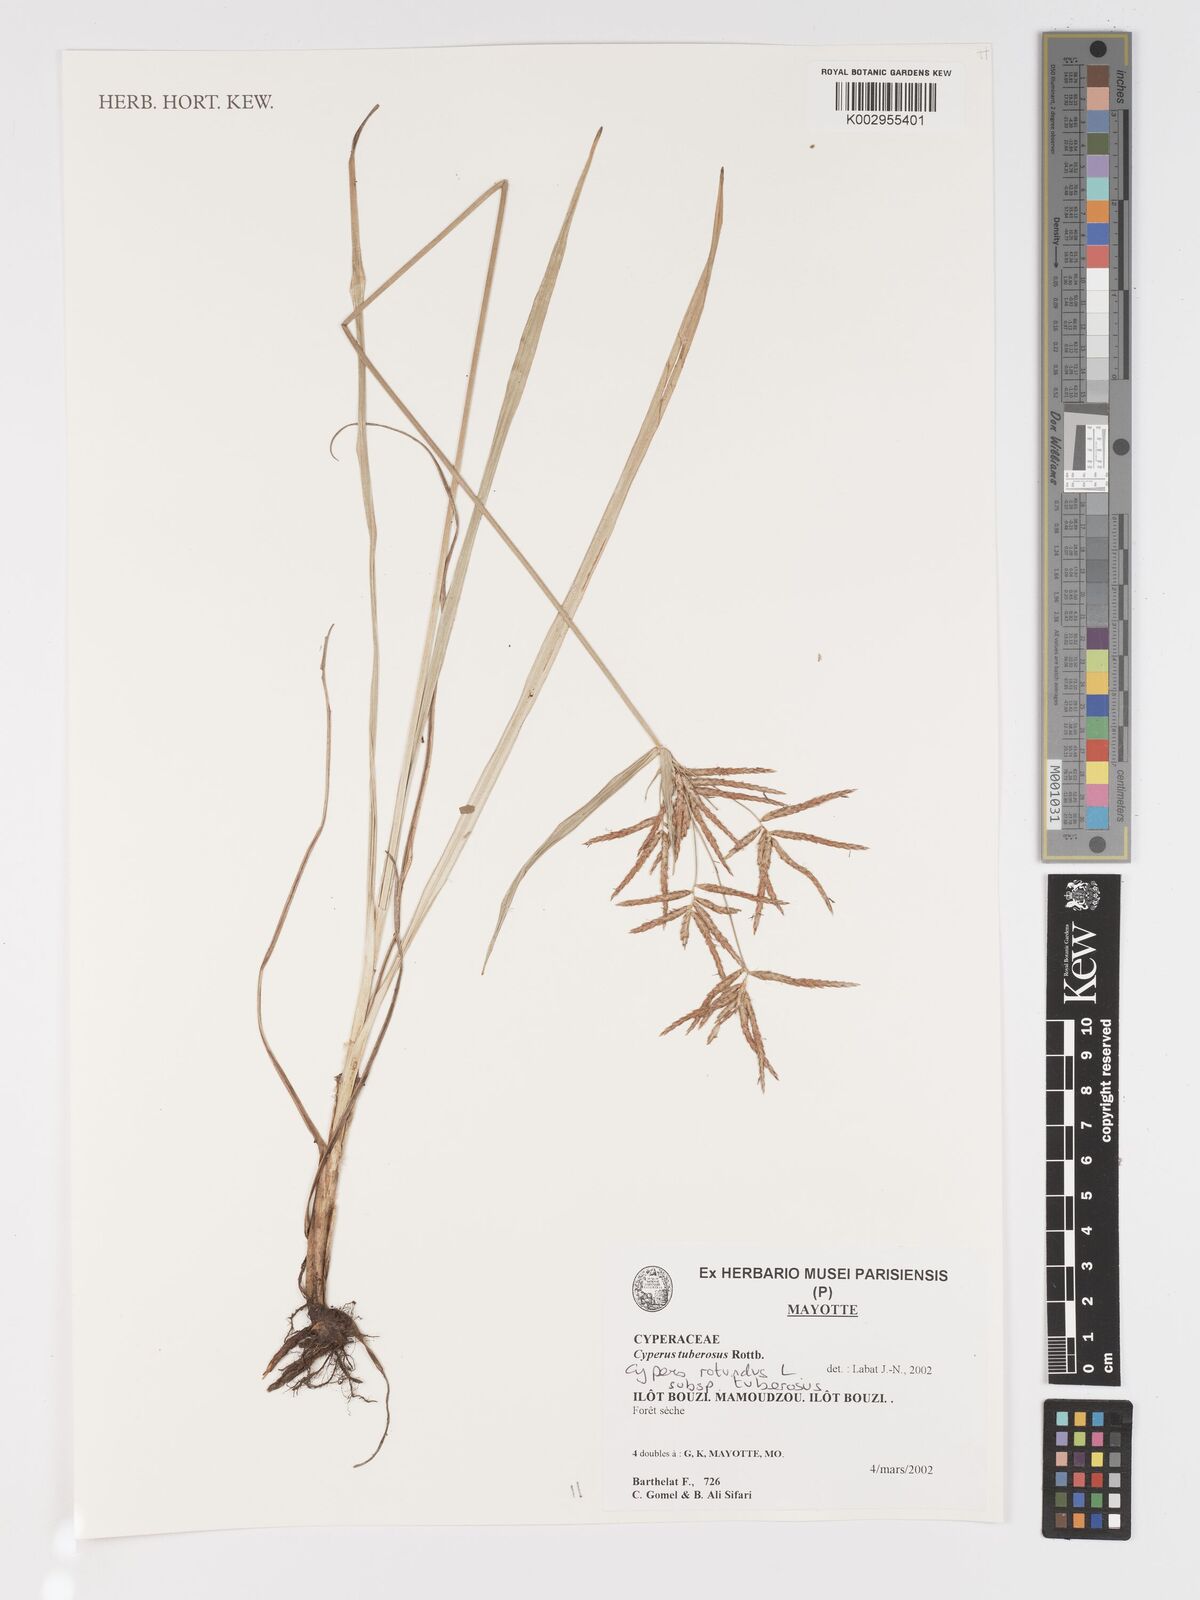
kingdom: Plantae
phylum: Tracheophyta
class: Liliopsida
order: Poales
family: Cyperaceae
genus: Cyperus
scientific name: Cyperus tuberosus
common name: Nut grass
